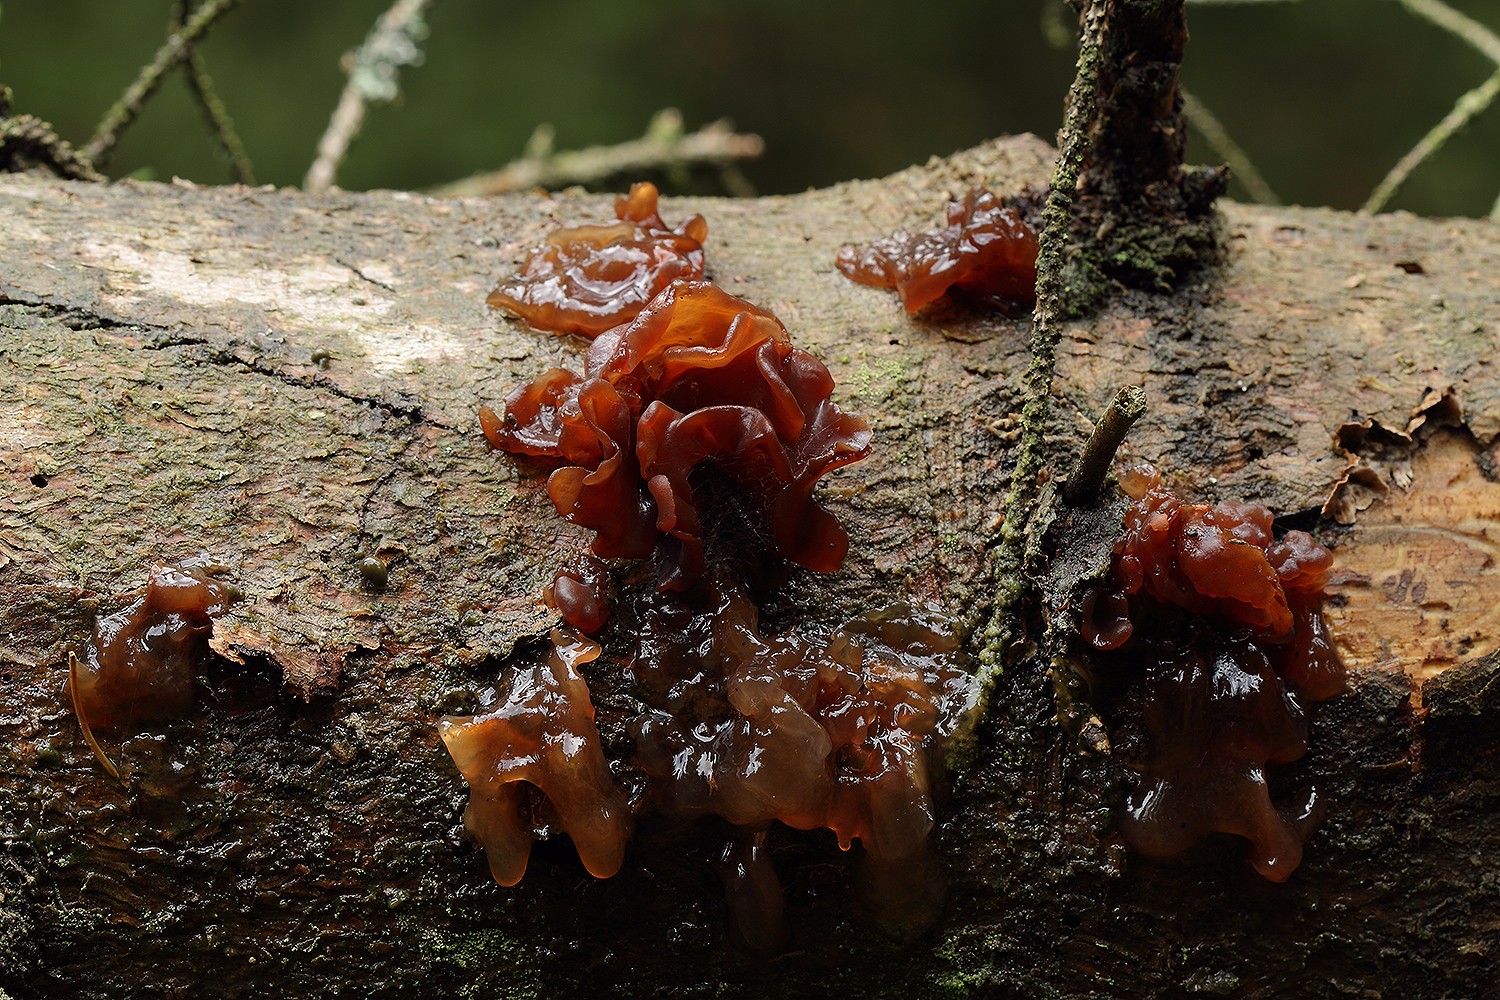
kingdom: Fungi
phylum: Basidiomycota
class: Tremellomycetes
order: Tremellales
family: Tremellaceae
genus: Phaeotremella
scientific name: Phaeotremella foliacea
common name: brun bævresvamp
